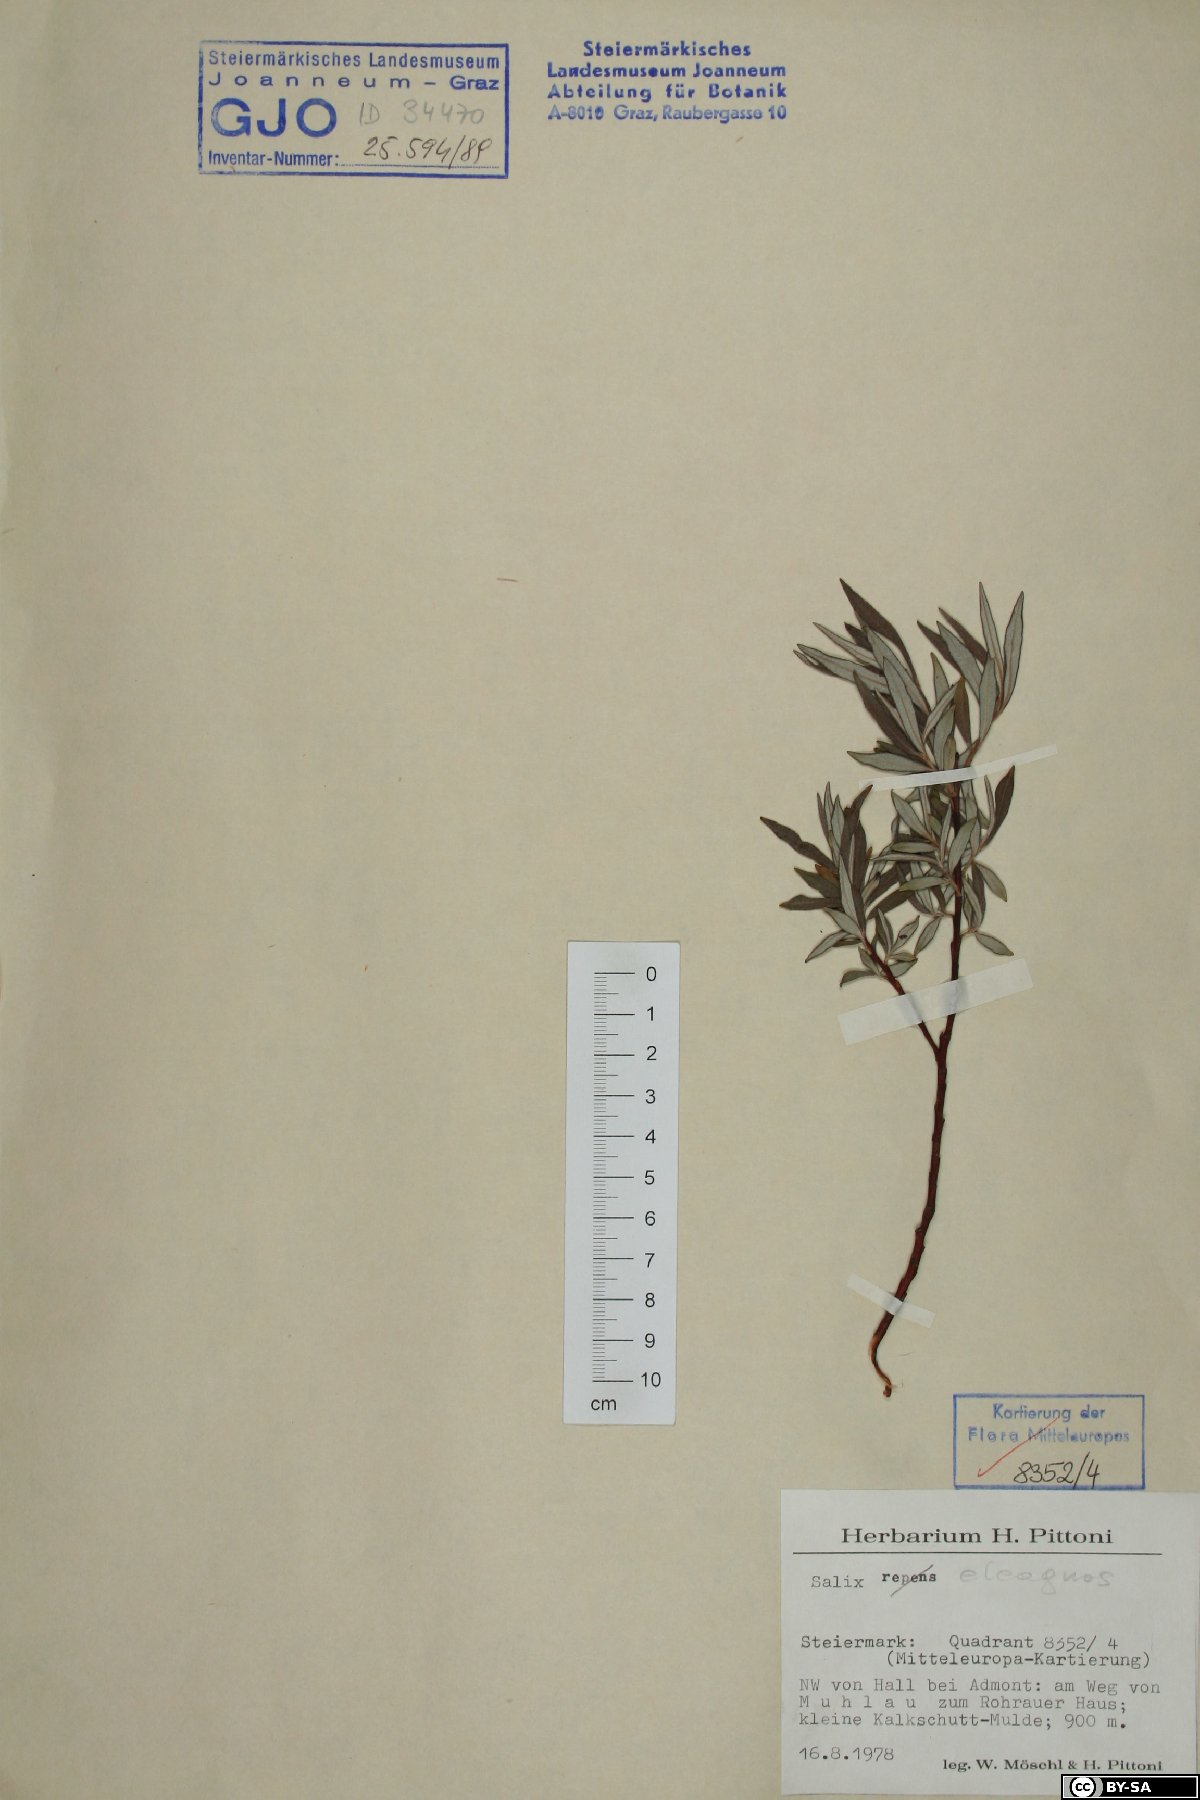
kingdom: Plantae
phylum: Tracheophyta
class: Magnoliopsida
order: Malpighiales
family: Salicaceae
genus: Salix
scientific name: Salix eleagnos
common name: Elaeagnus willow
